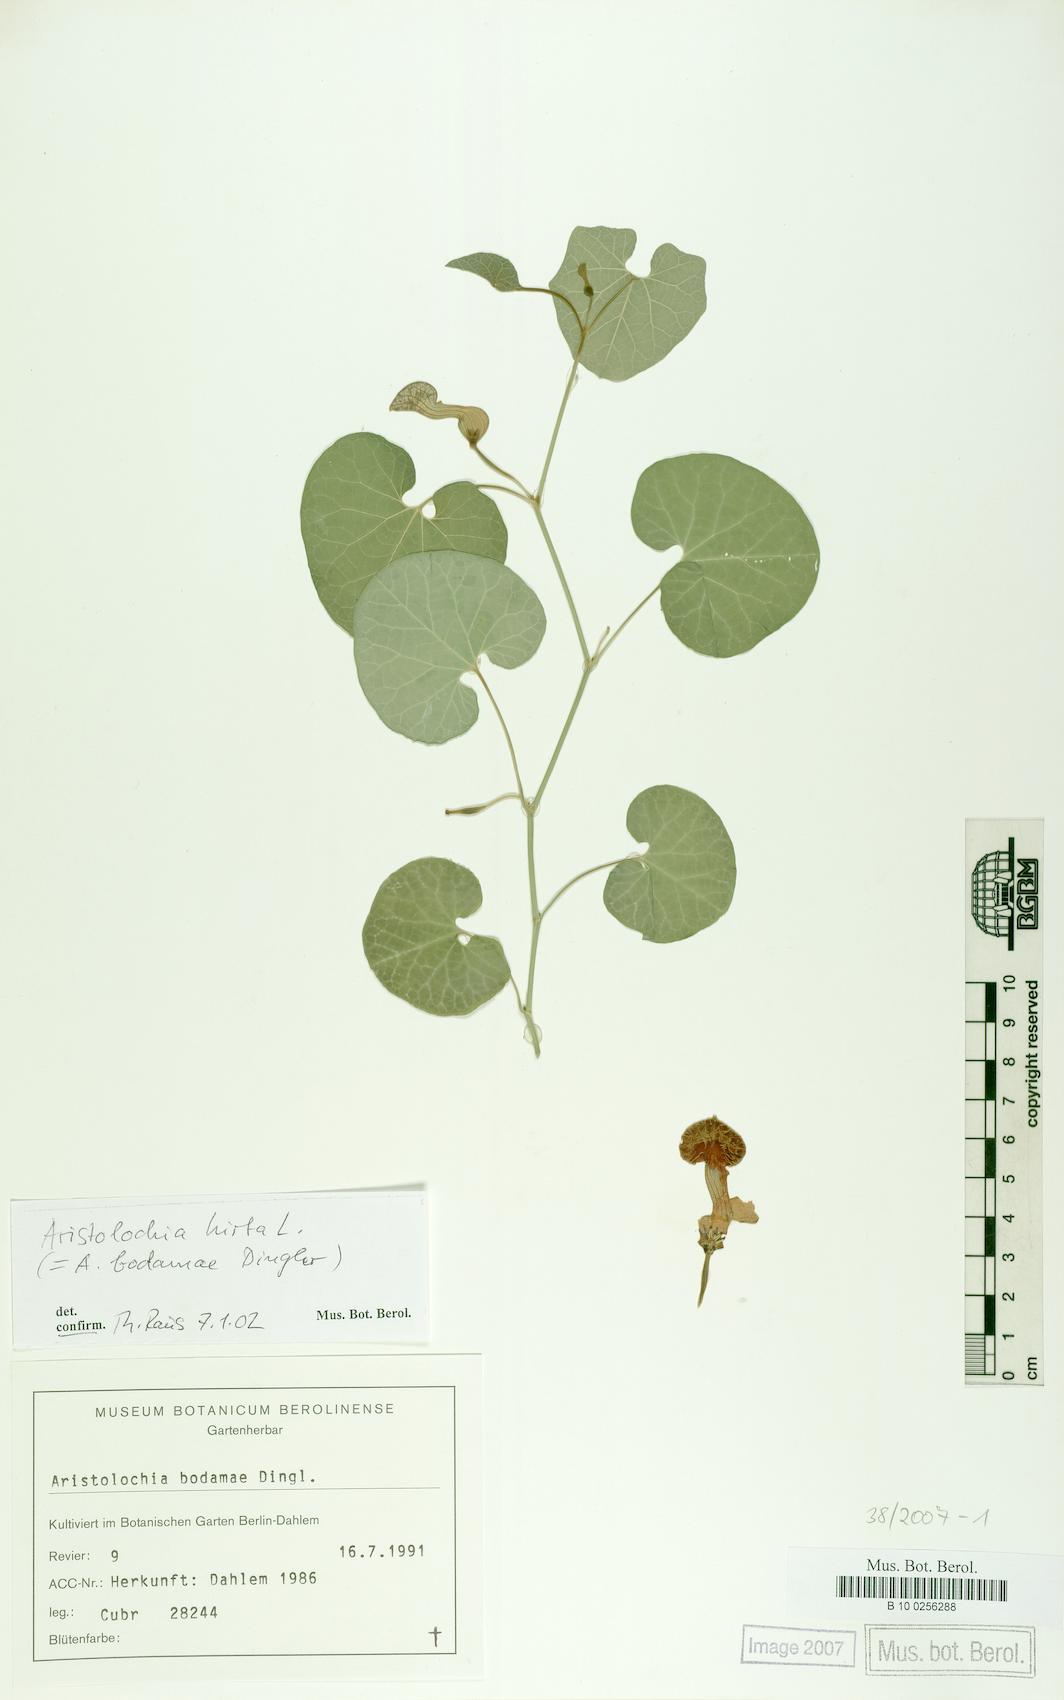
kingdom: Plantae
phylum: Tracheophyta
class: Magnoliopsida
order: Piperales
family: Aristolochiaceae
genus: Aristolochia
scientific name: Aristolochia hirta
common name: Breckland birthwort
